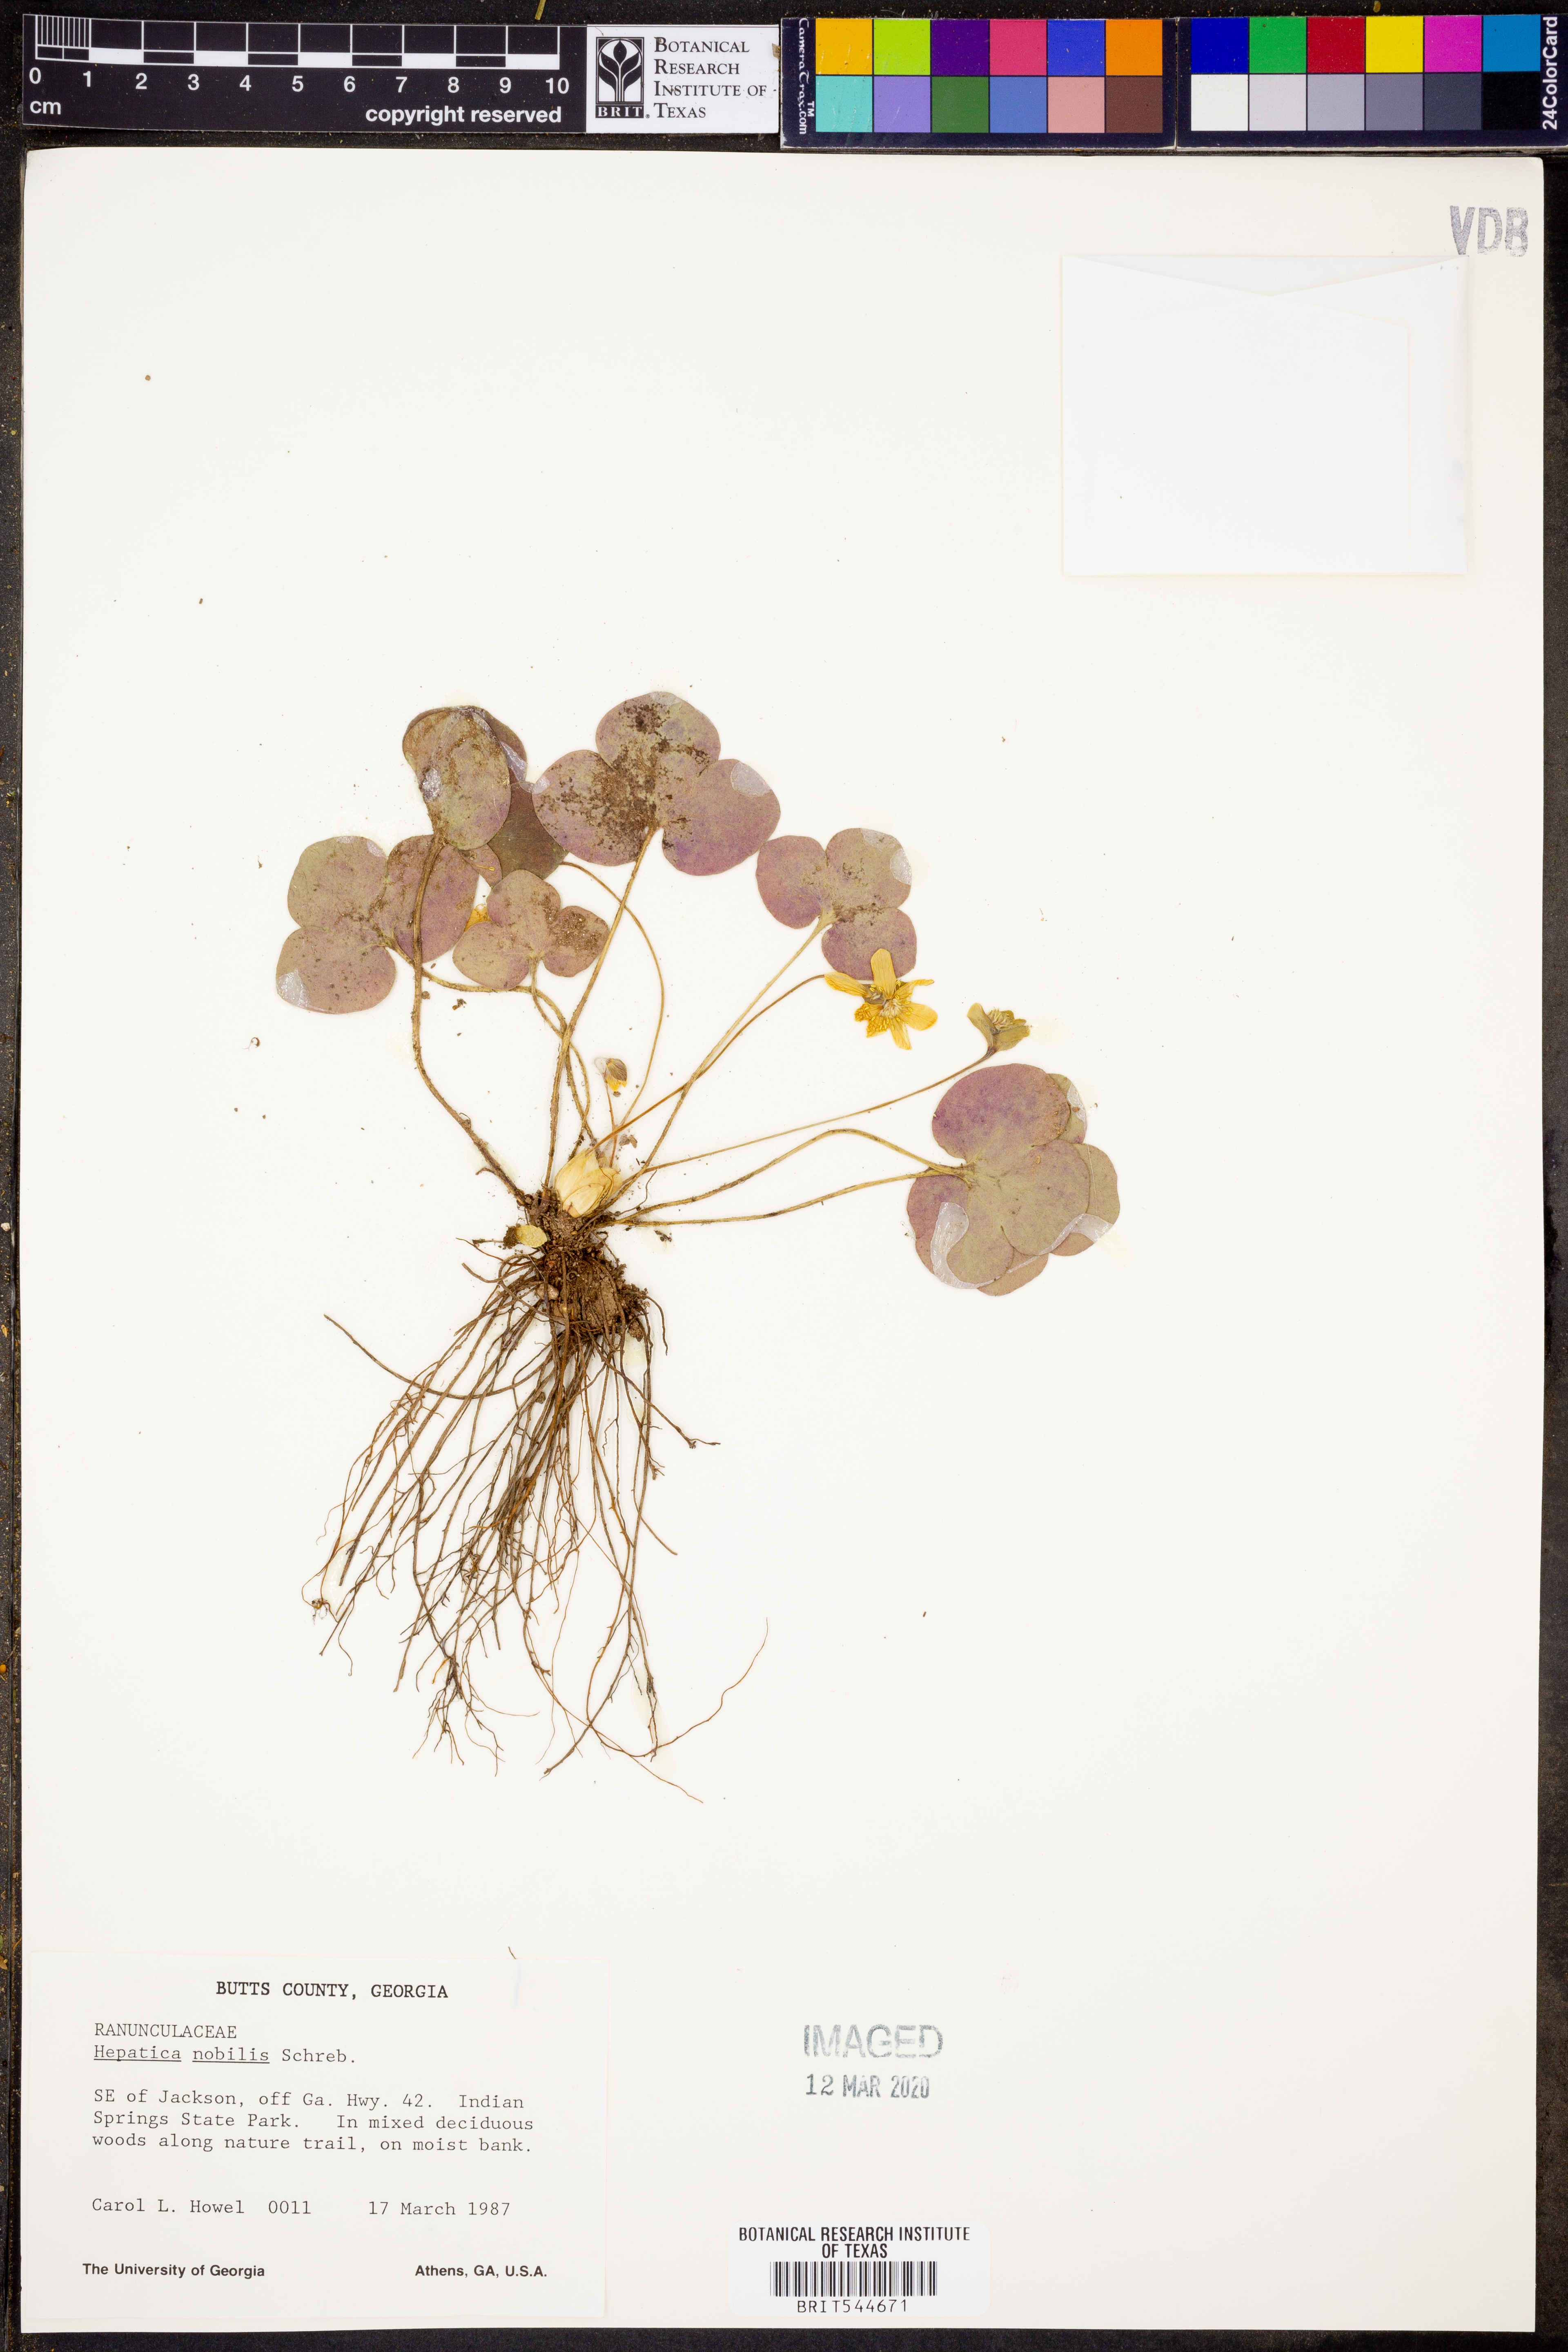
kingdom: Plantae
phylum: Tracheophyta
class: Magnoliopsida
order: Ranunculales
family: Ranunculaceae
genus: Hepatica
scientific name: Hepatica nobilis
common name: Liverleaf
